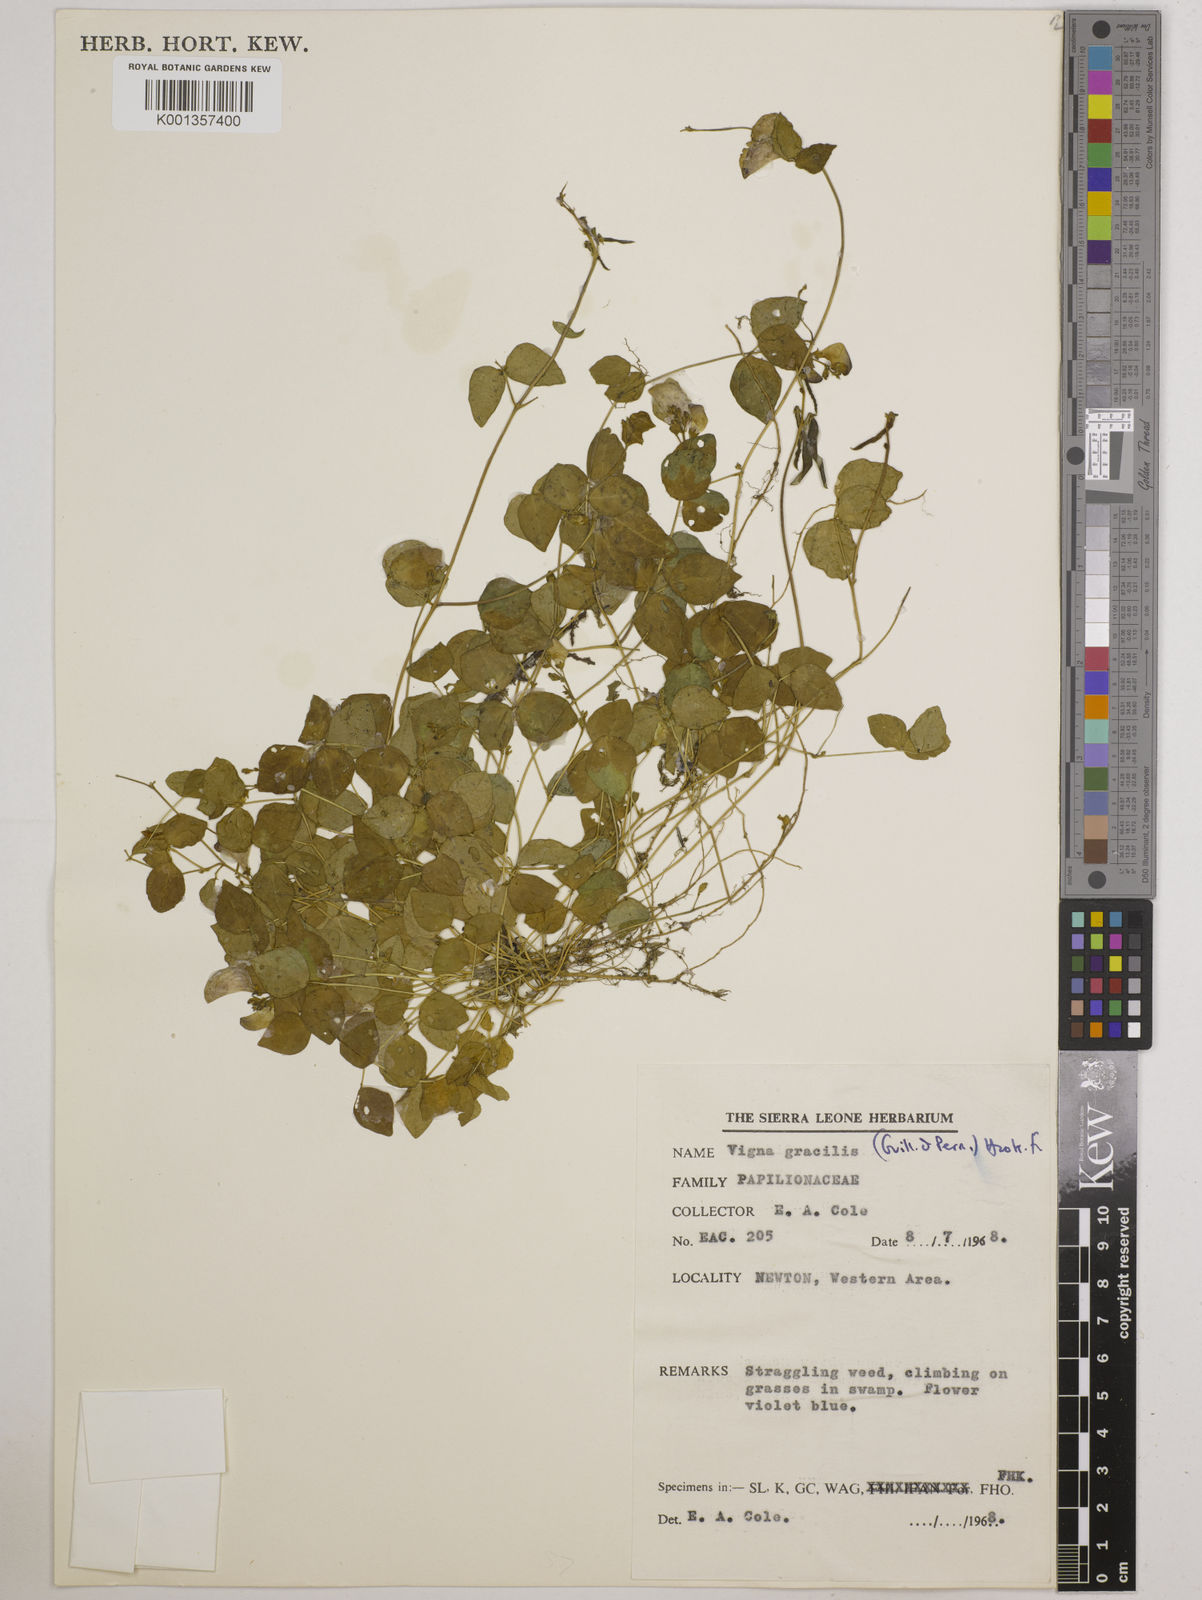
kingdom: Plantae
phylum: Tracheophyta
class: Magnoliopsida
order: Fabales
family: Fabaceae
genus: Vigna
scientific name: Vigna gracilis
